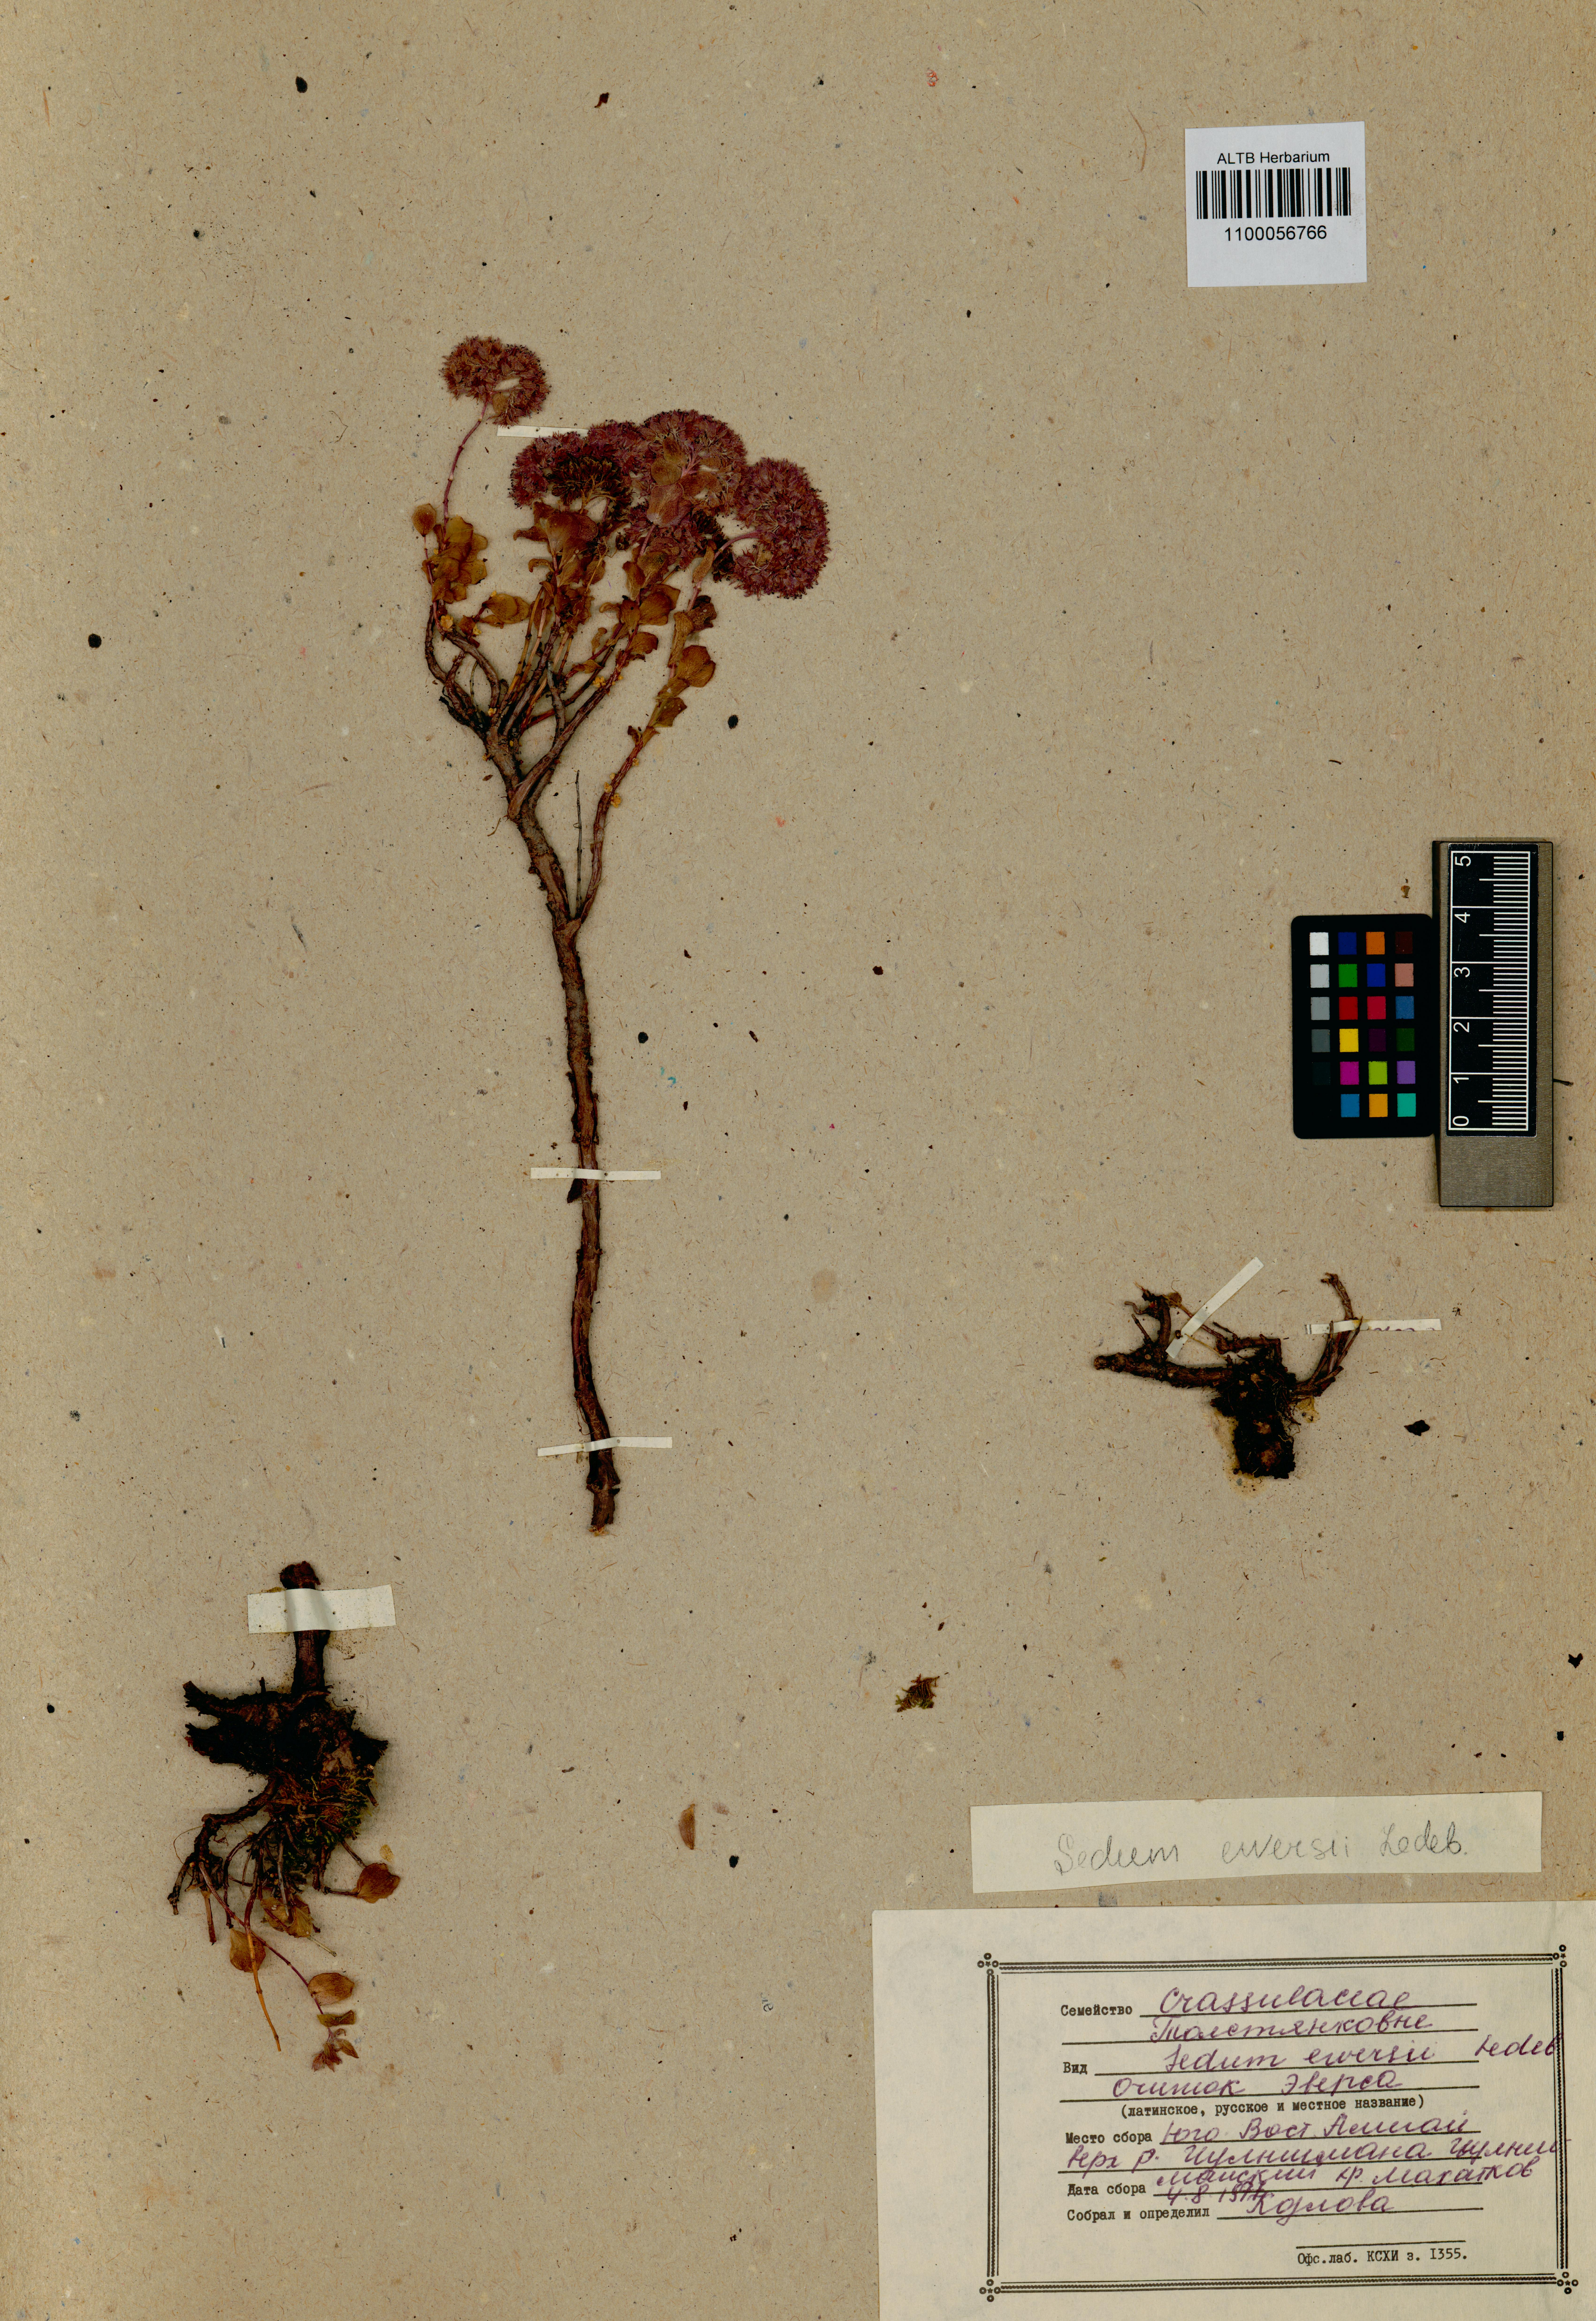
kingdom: Plantae
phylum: Tracheophyta
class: Magnoliopsida
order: Saxifragales
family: Crassulaceae
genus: Hylotelephium
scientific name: Hylotelephium ewersii
